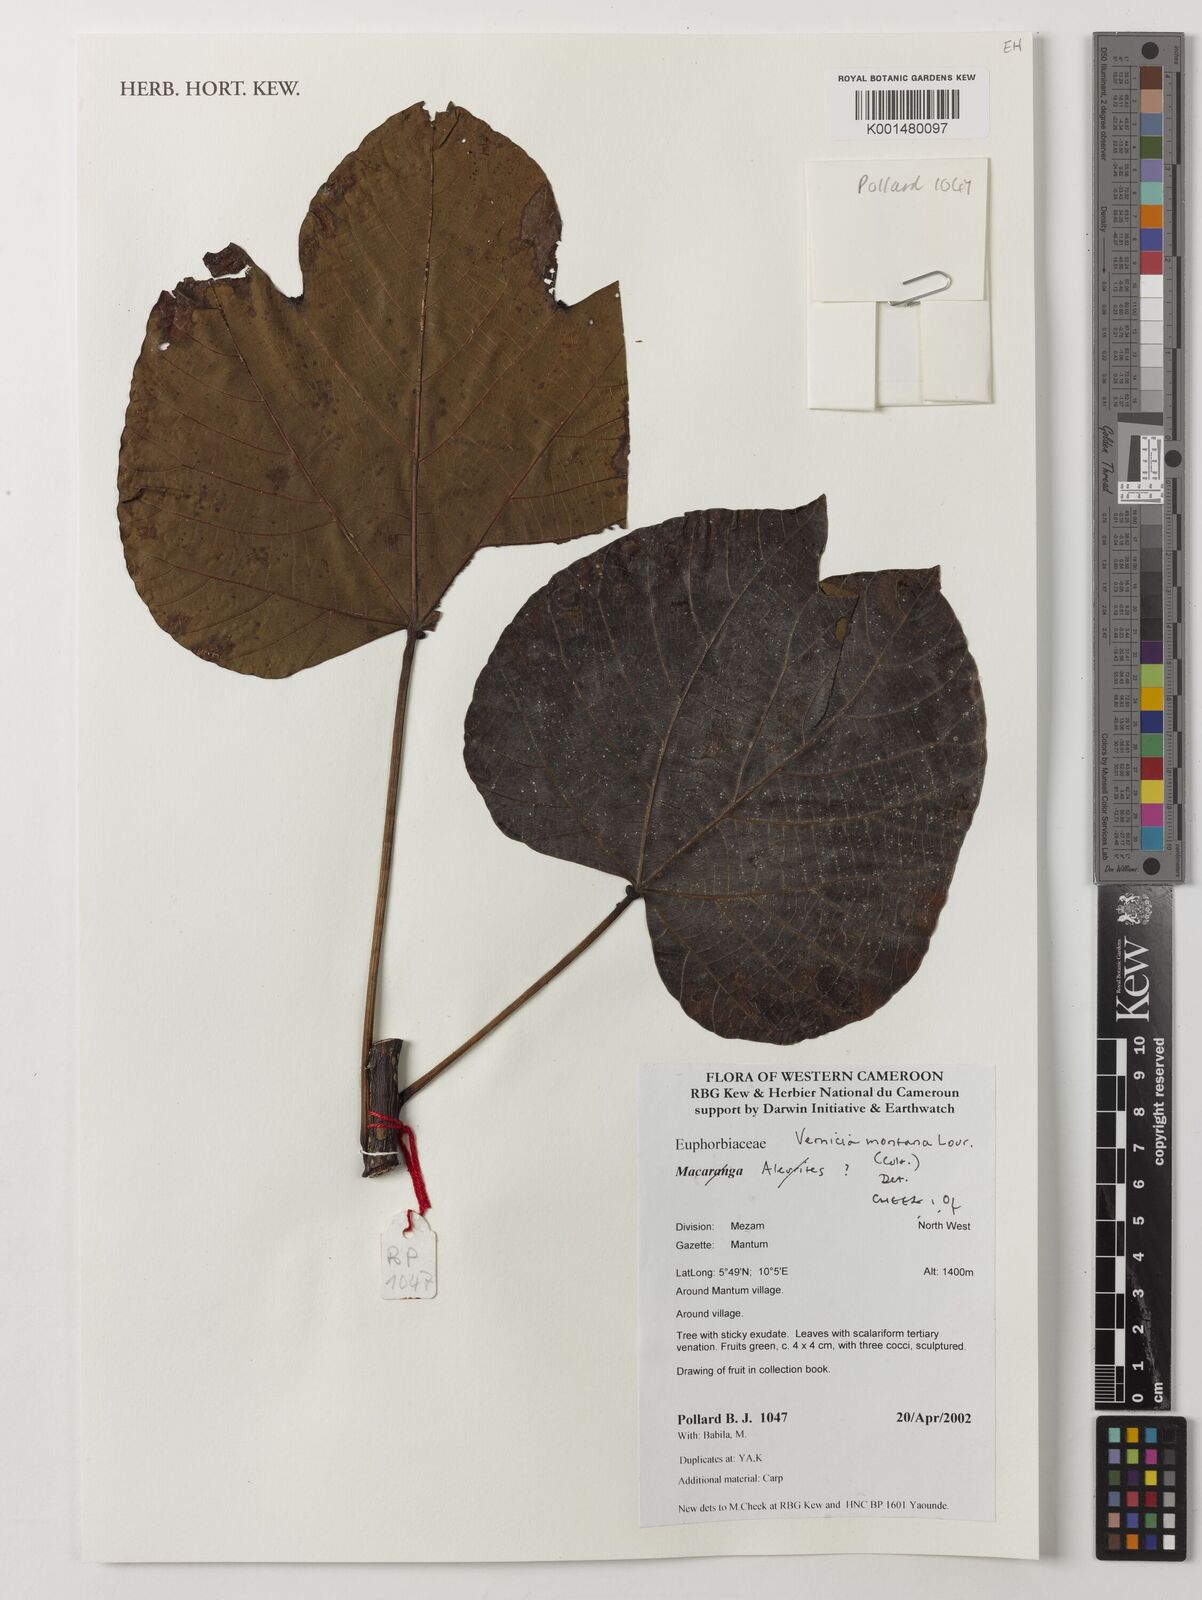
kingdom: Plantae
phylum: Tracheophyta
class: Magnoliopsida
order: Malpighiales
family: Euphorbiaceae
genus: Vernicia
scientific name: Vernicia montana
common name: Mu oil tree
